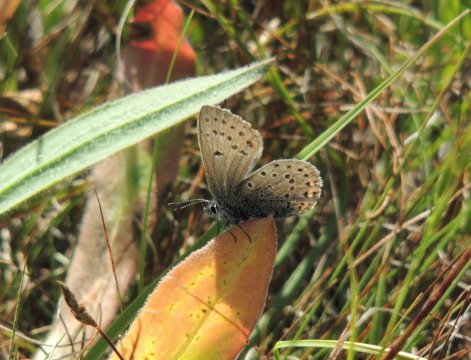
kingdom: Animalia
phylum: Arthropoda
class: Insecta
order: Lepidoptera
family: Lycaenidae
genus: Plebejus
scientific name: Plebejus saepiolus
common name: Greenish Blue
